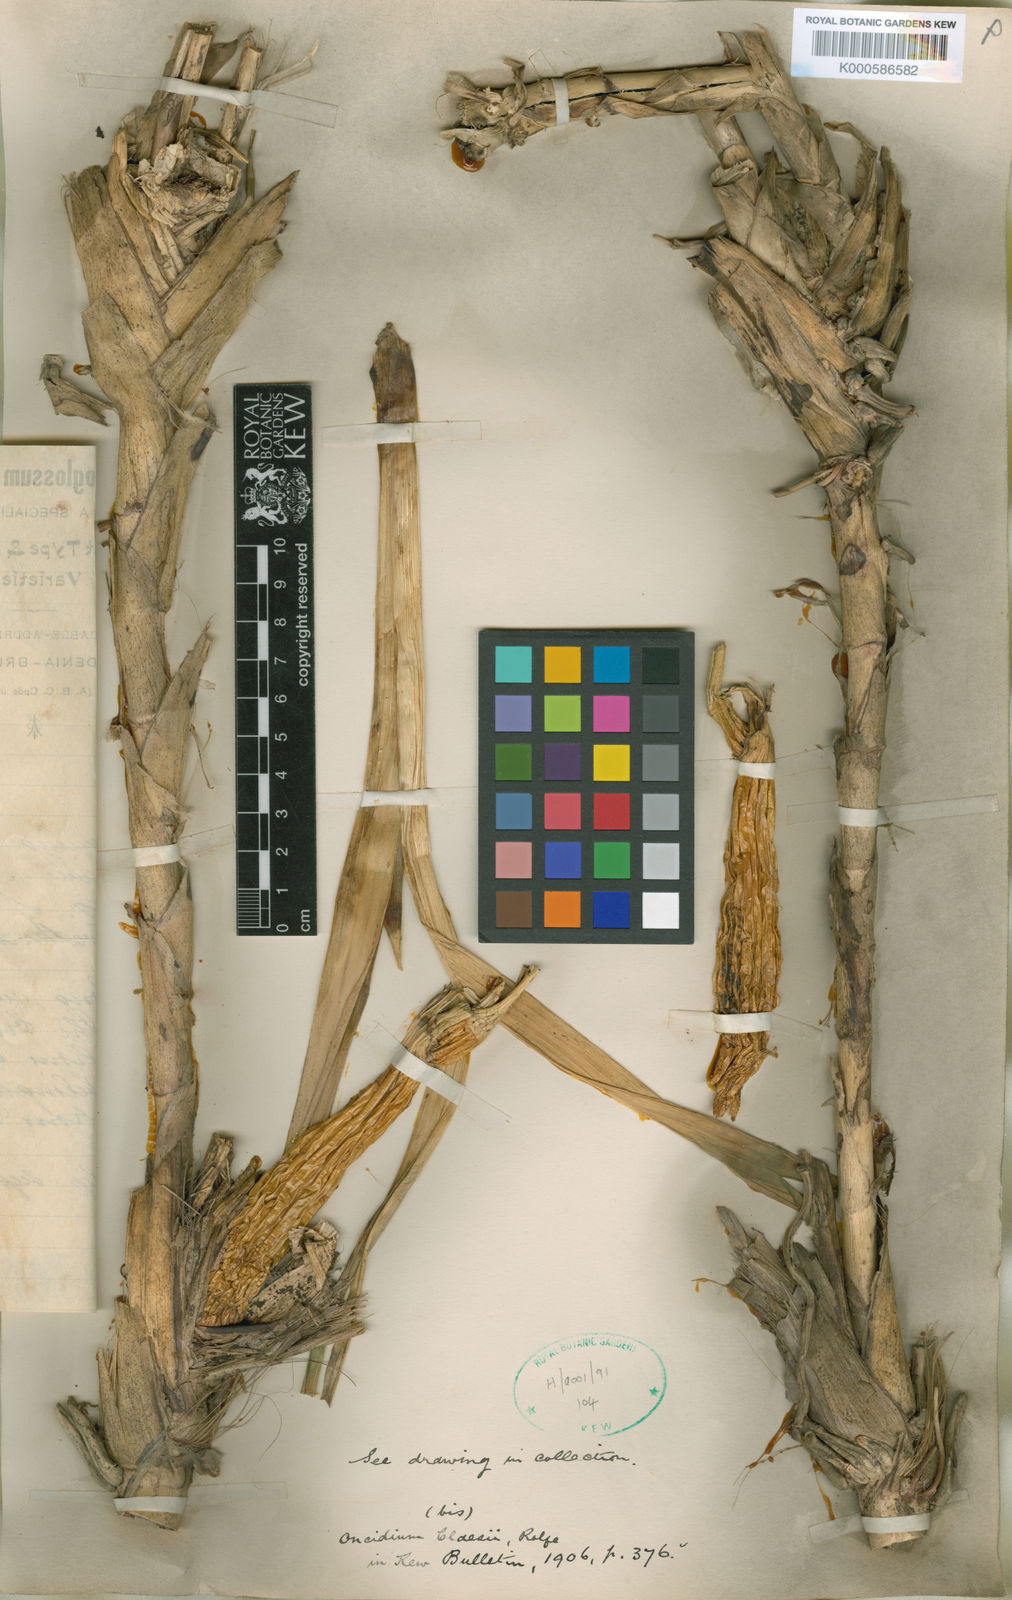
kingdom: Plantae
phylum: Tracheophyta
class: Liliopsida
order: Asparagales
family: Orchidaceae
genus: Cyrtochilum
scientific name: Cyrtochilum orgyale
